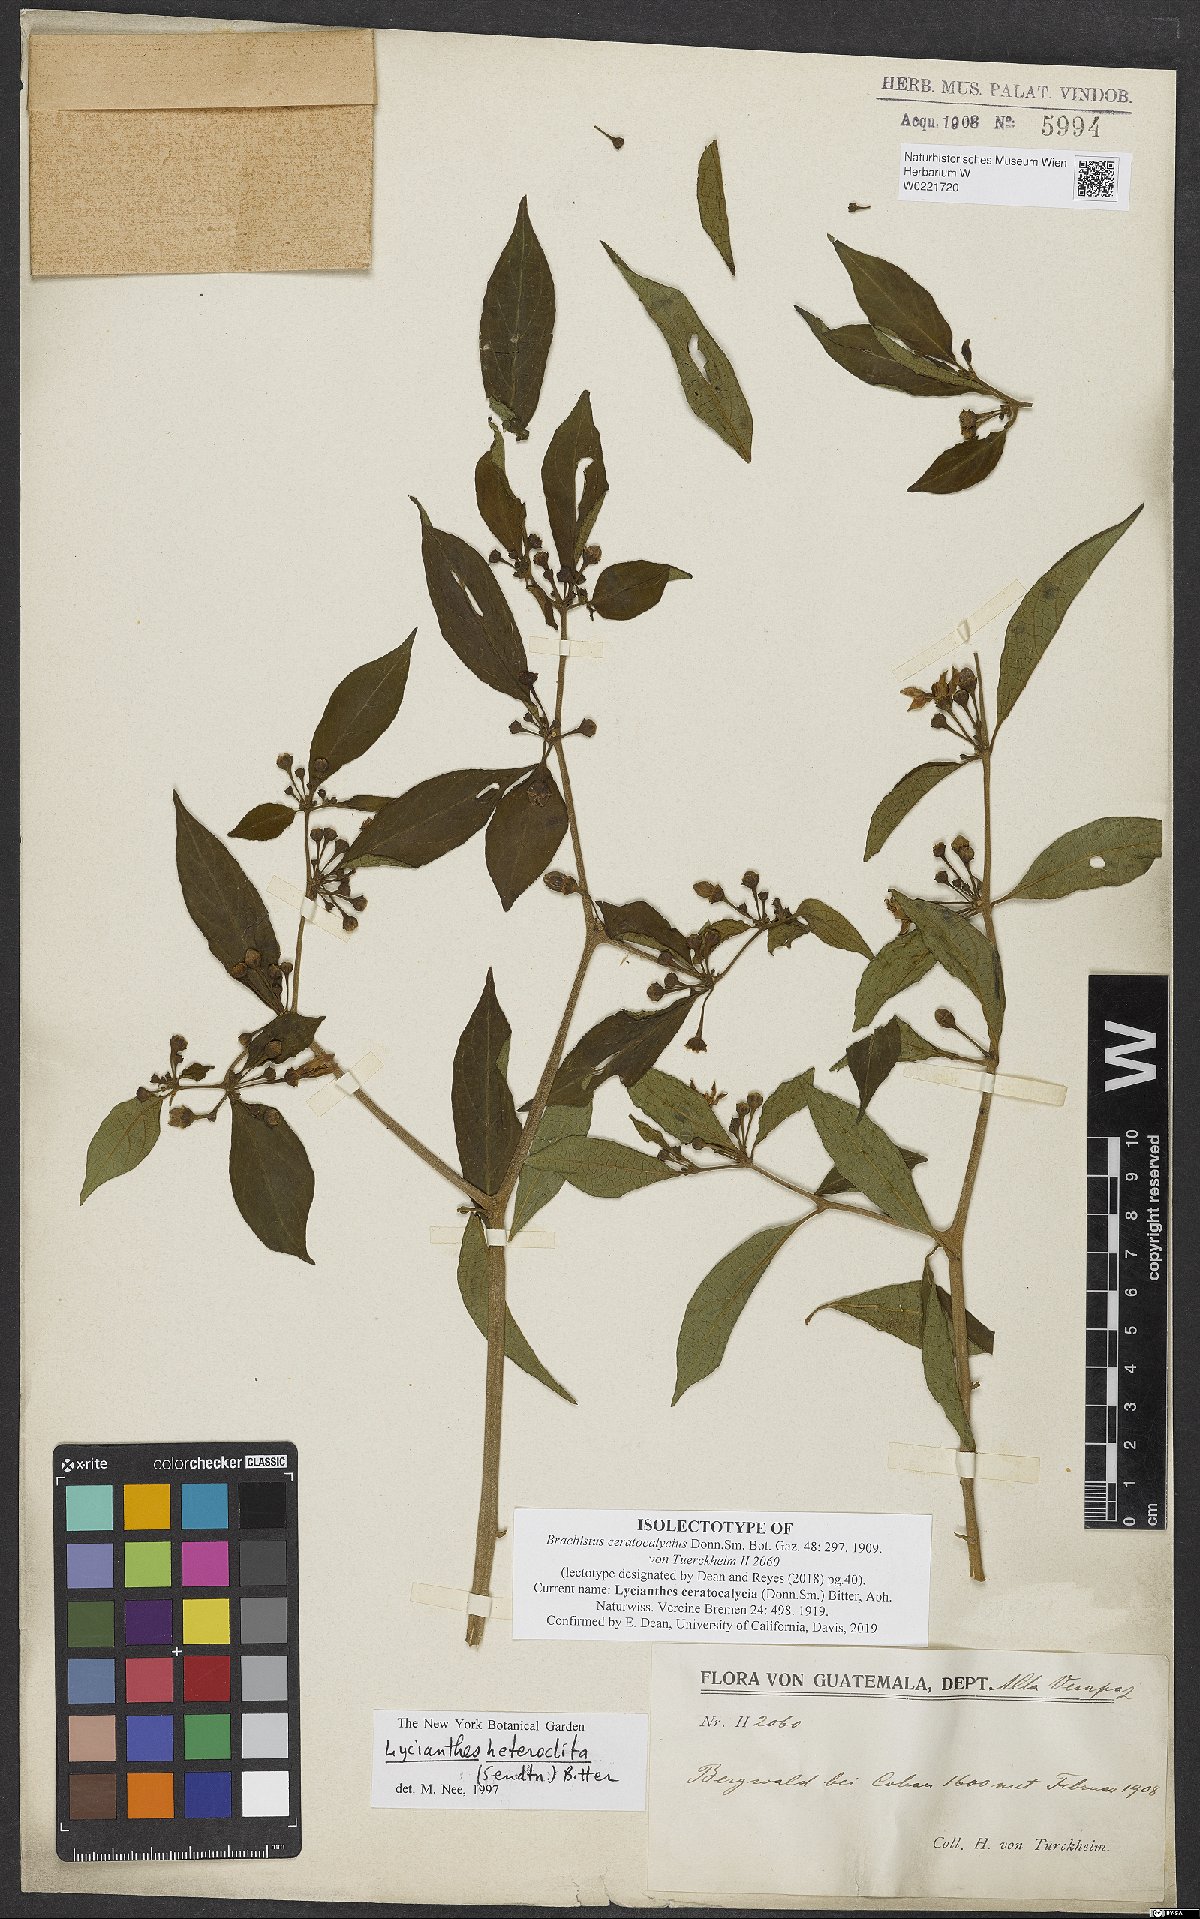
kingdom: Plantae
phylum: Tracheophyta
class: Magnoliopsida
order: Solanales
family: Solanaceae
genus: Lycianthes
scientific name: Lycianthes ceratocalycia
